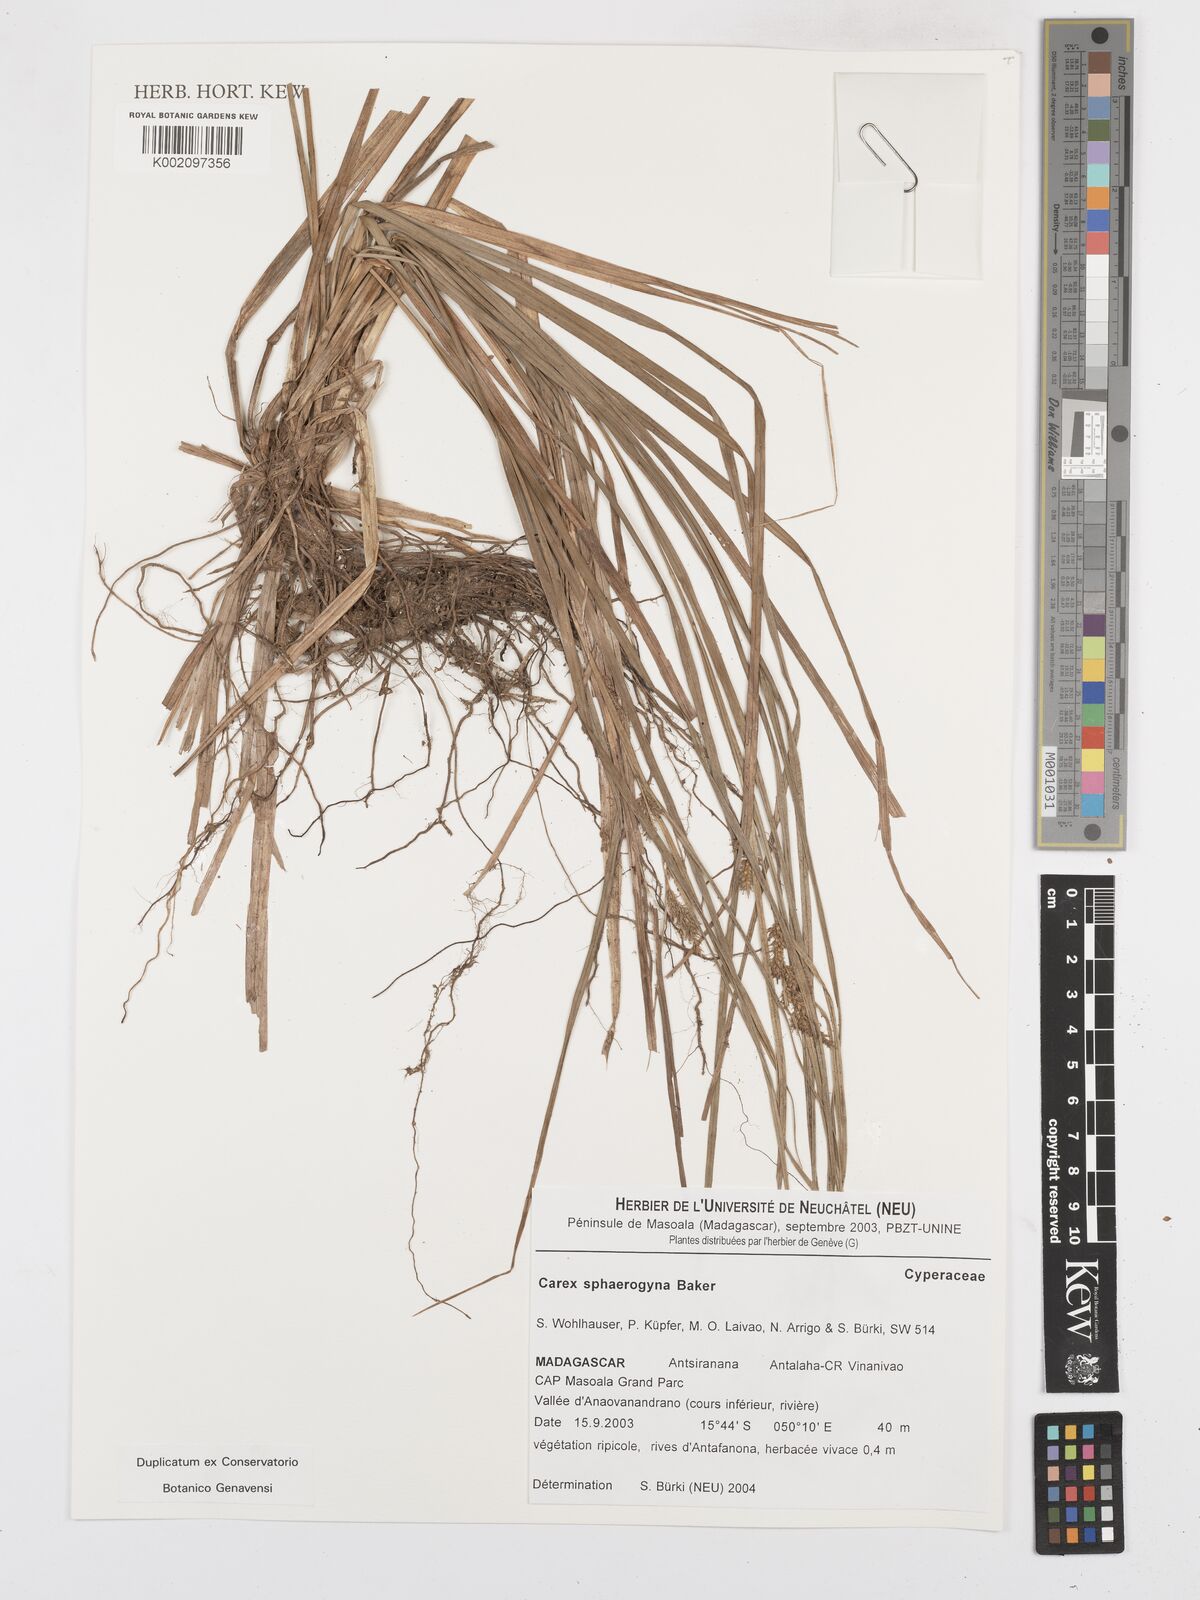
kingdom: Plantae
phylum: Tracheophyta
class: Liliopsida
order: Poales
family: Cyperaceae
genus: Carex
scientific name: Carex sphaerogyna
